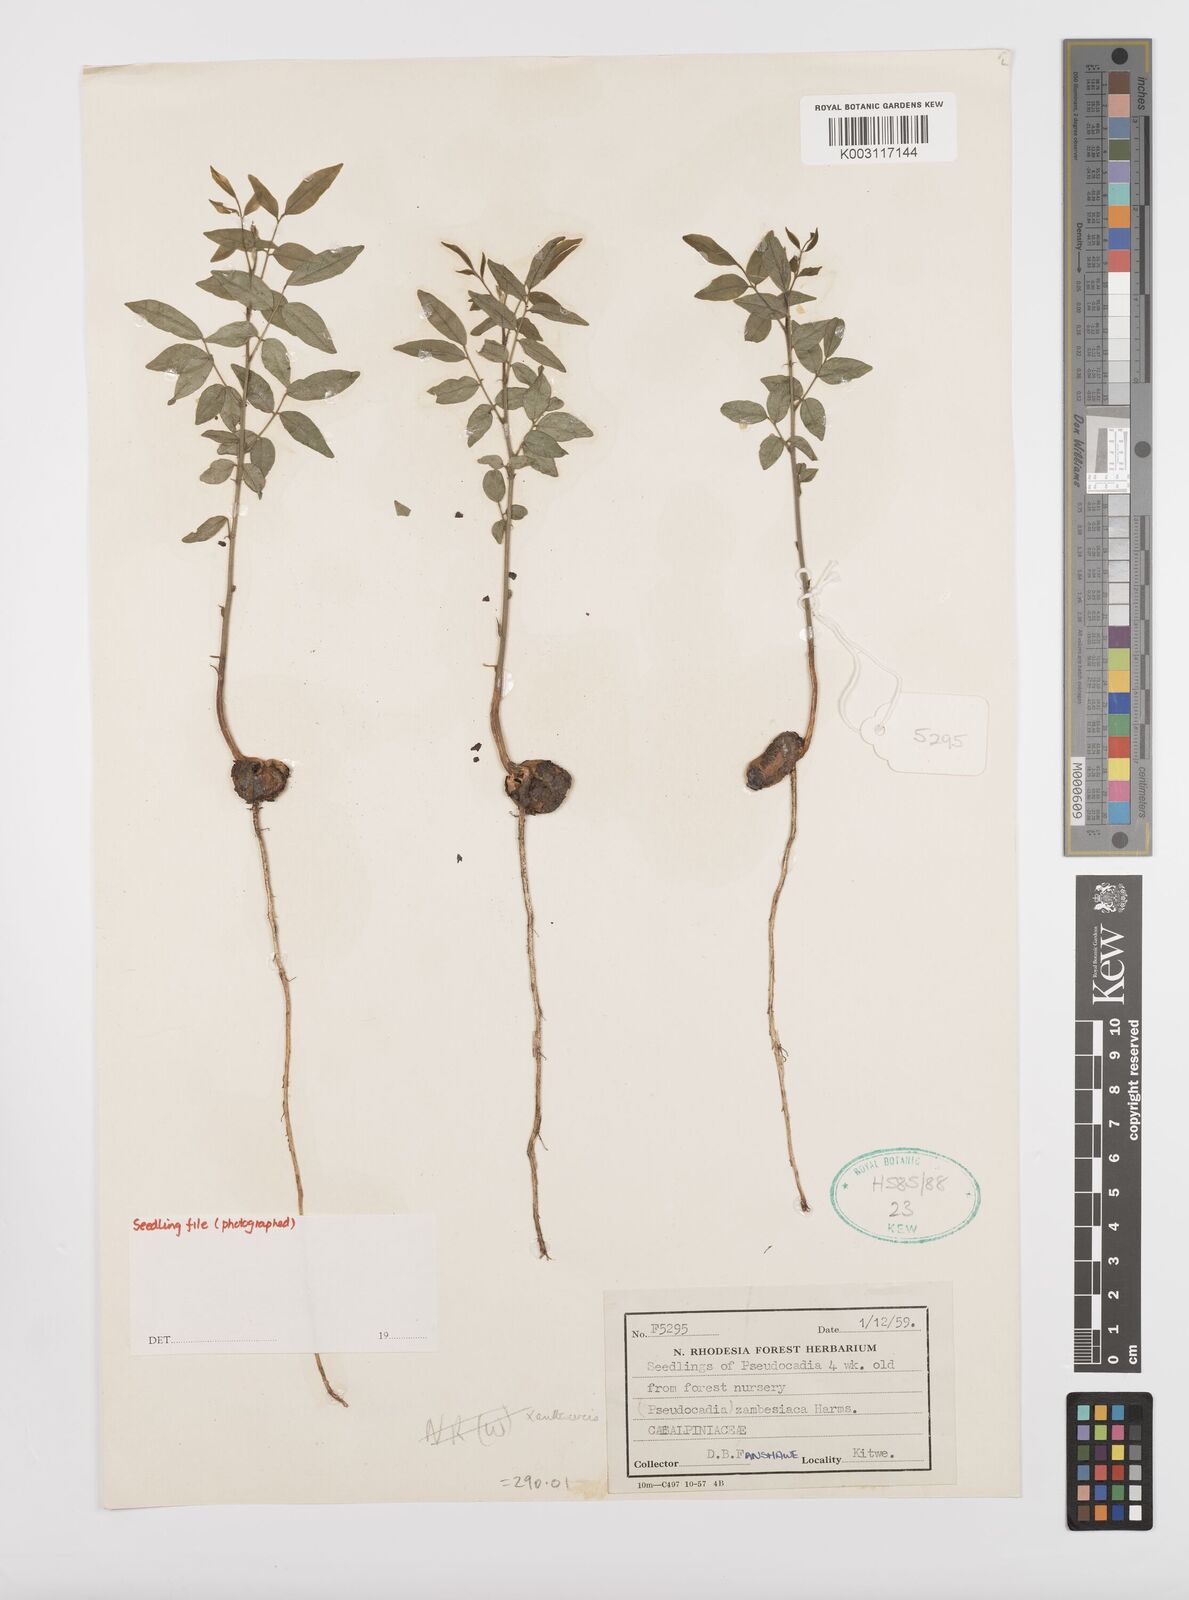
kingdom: Plantae
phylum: Tracheophyta
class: Magnoliopsida
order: Fabales
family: Fabaceae
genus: Xanthocercis
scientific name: Xanthocercis
